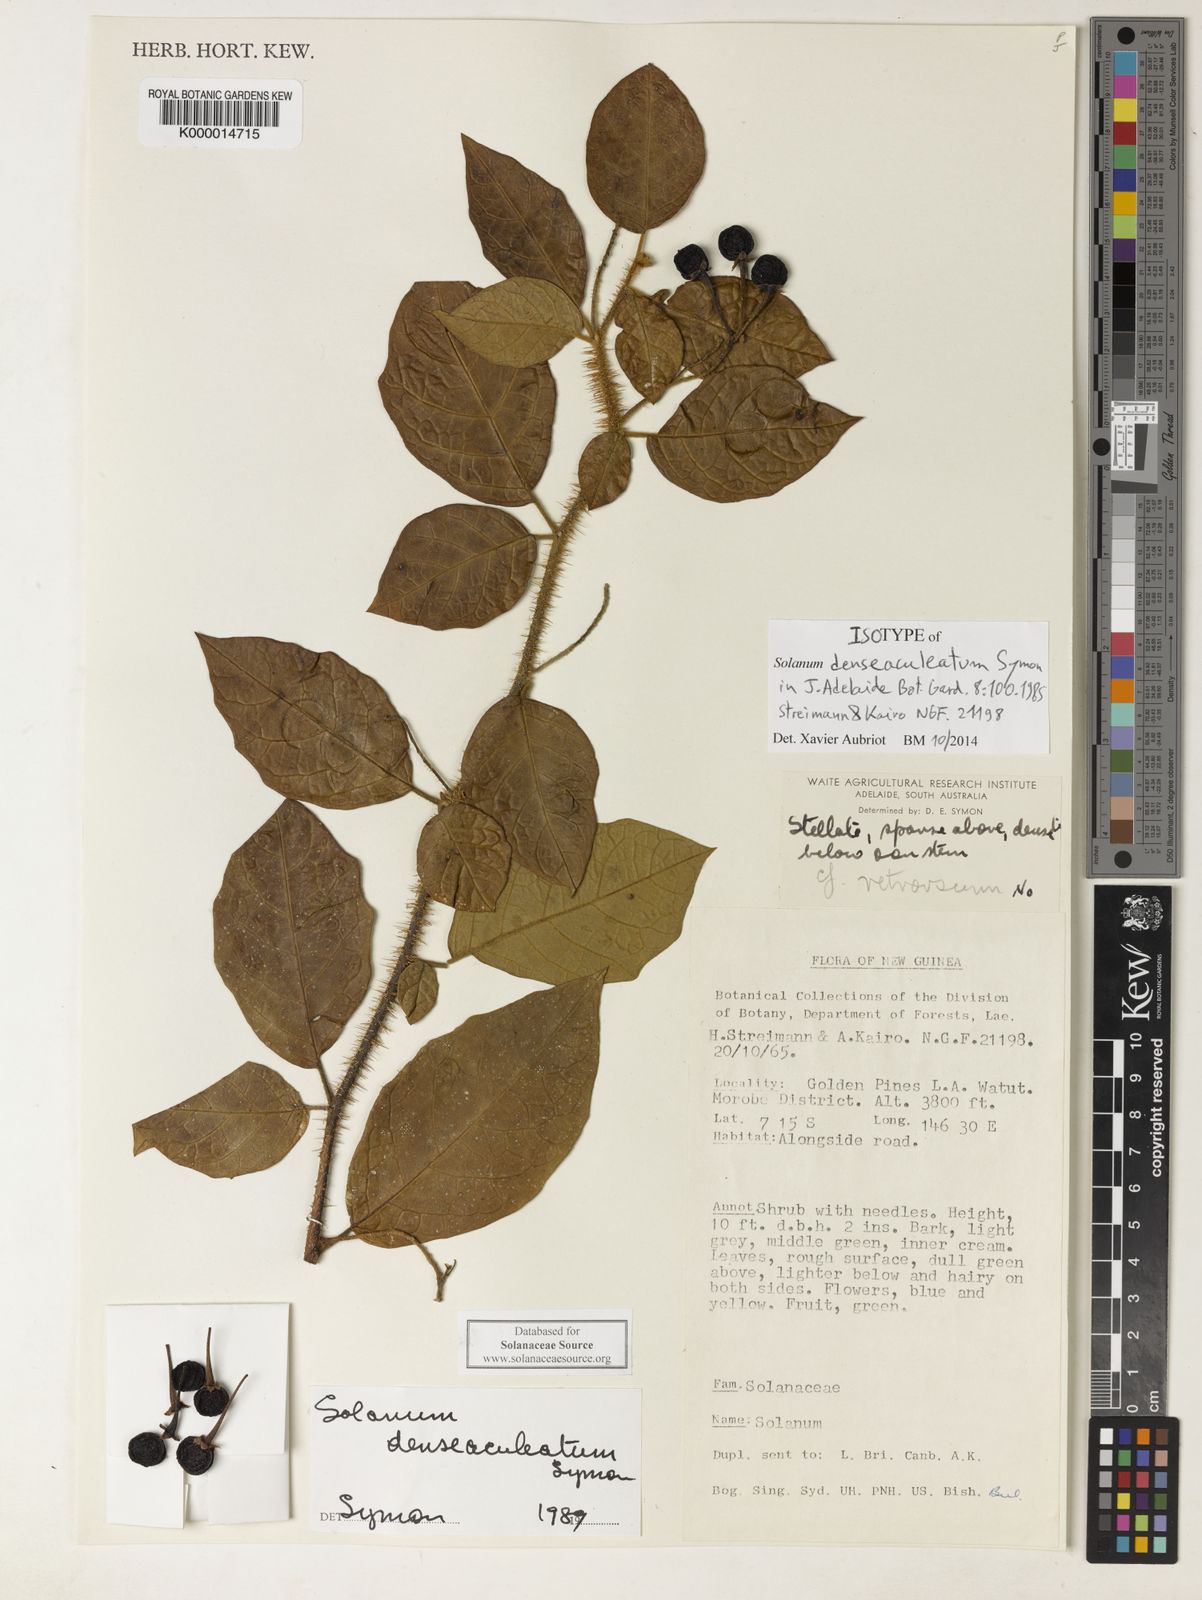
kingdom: Plantae
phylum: Tracheophyta
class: Magnoliopsida
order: Solanales
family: Solanaceae
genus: Solanum
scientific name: Solanum denseaculeatum
